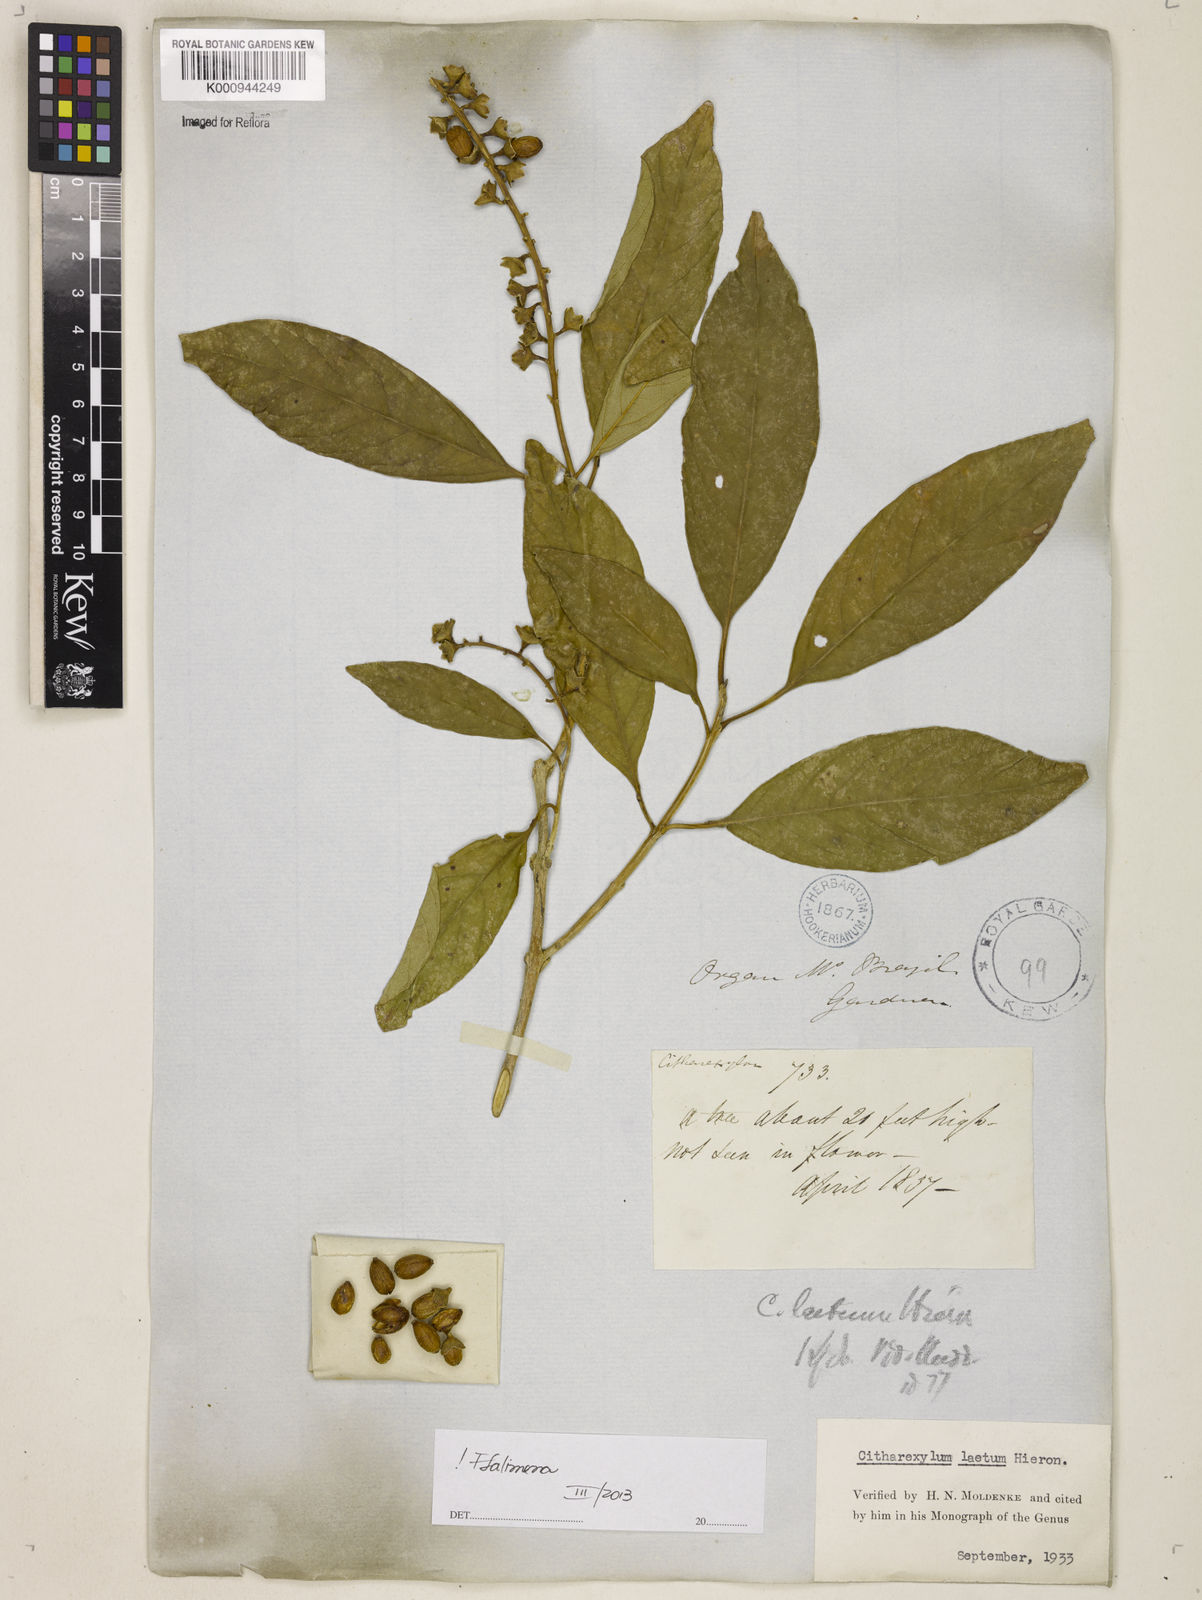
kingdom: Plantae
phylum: Tracheophyta
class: Magnoliopsida
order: Lamiales
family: Verbenaceae
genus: Citharexylum
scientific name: Citharexylum myrianthum
